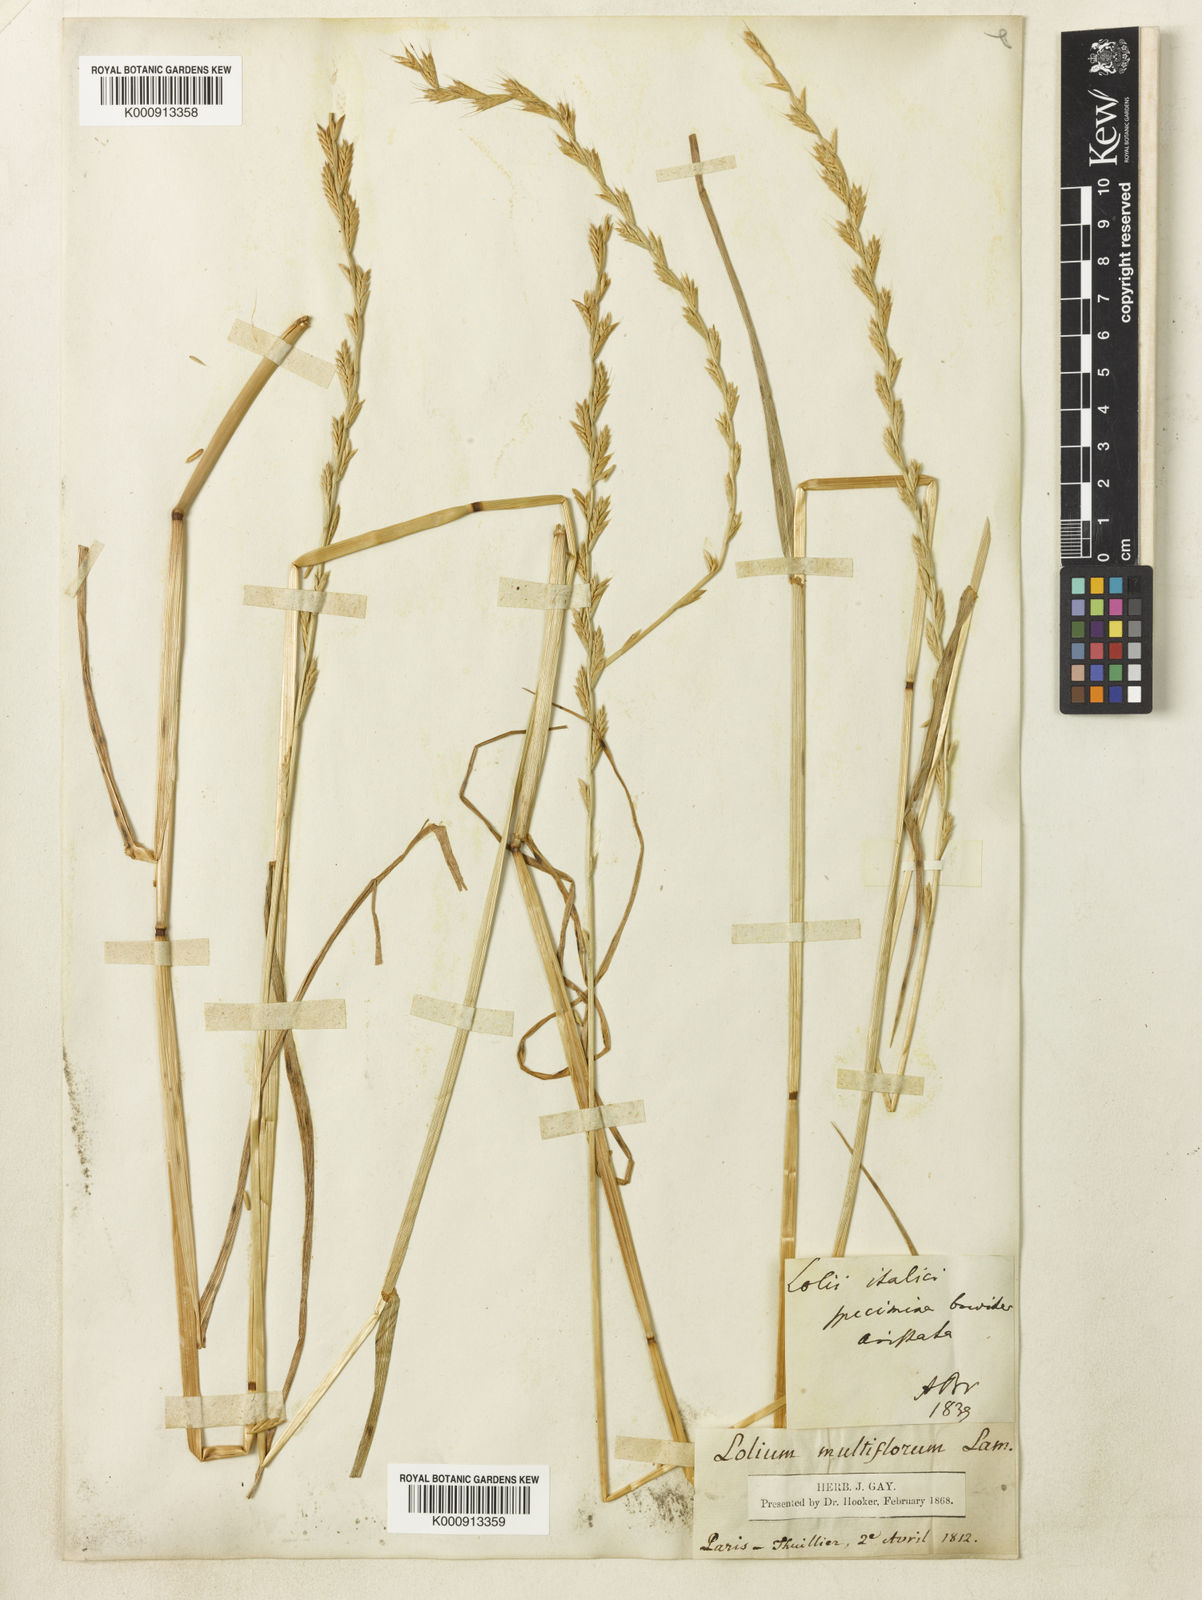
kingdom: Plantae
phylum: Tracheophyta
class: Liliopsida
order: Poales
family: Poaceae
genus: Lolium
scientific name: Lolium multiflorum
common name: Annual ryegrass
